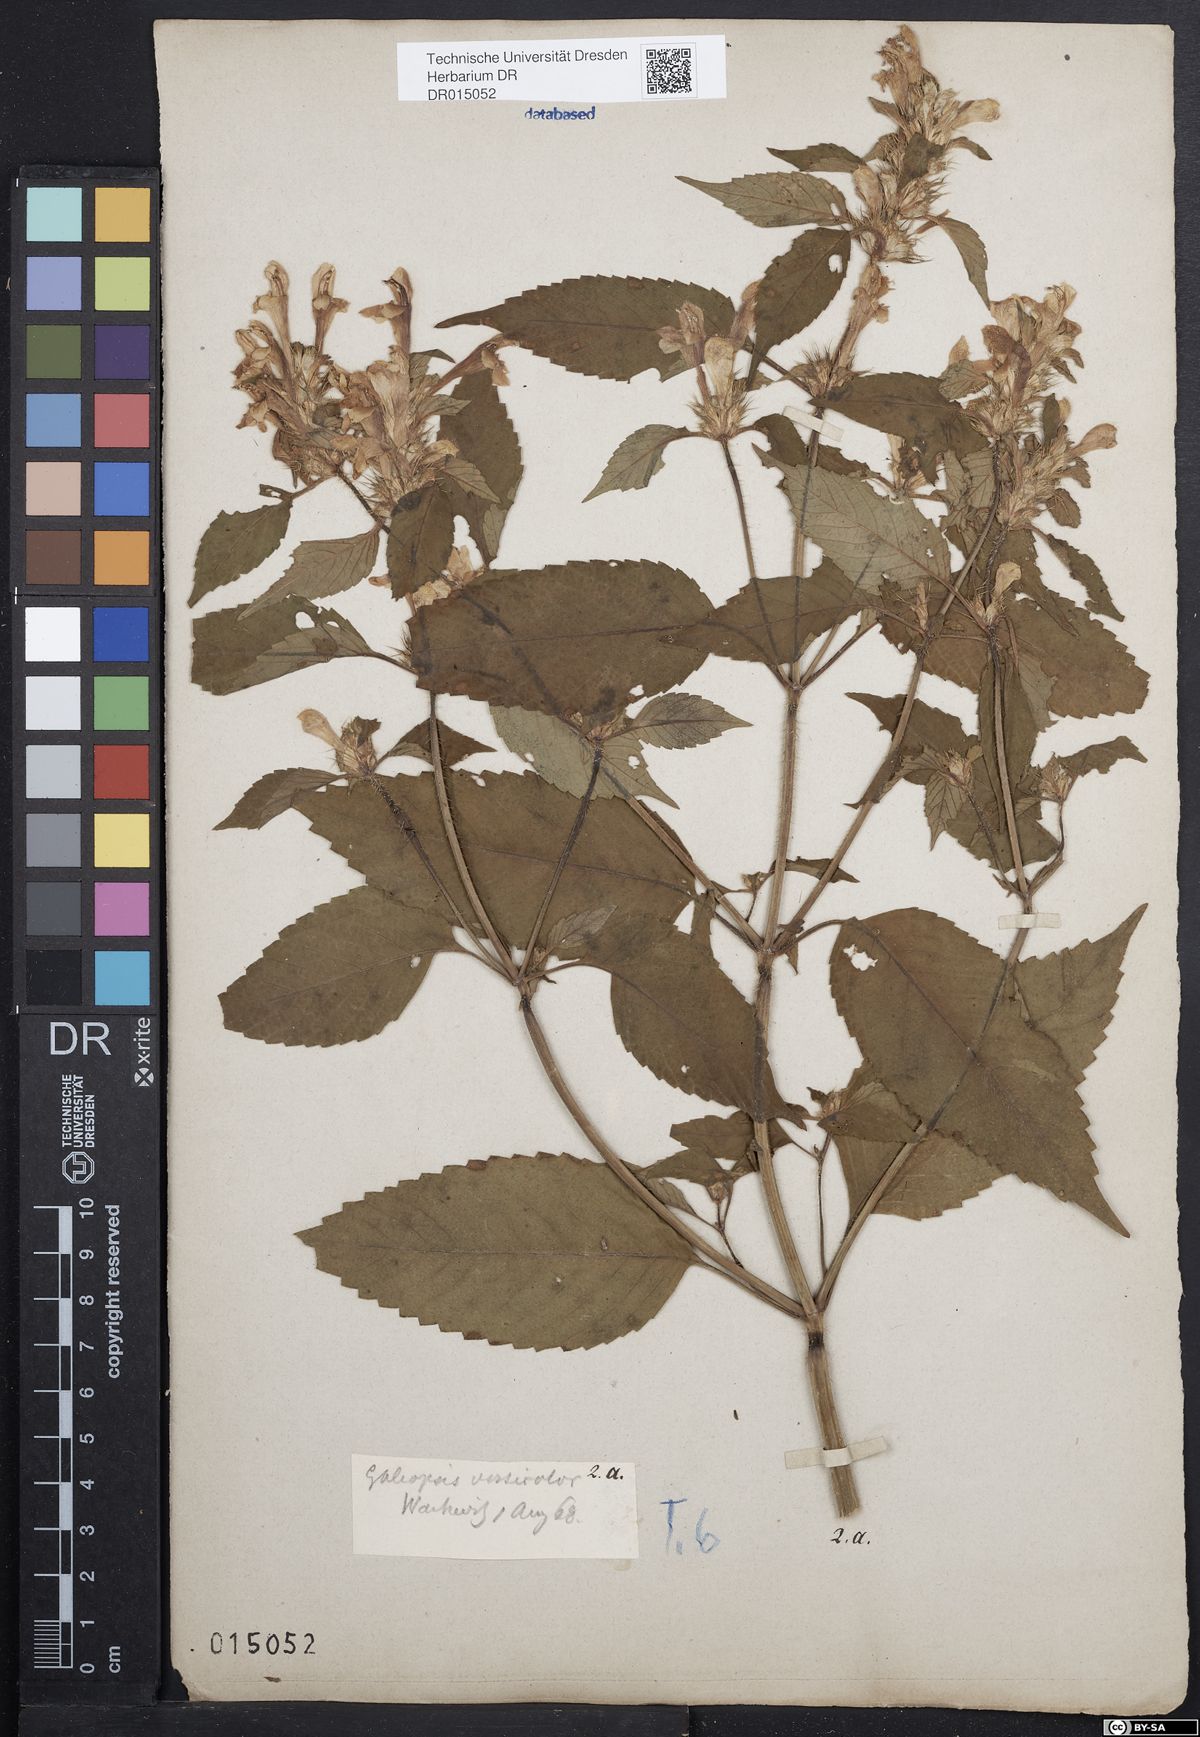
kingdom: Plantae
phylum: Tracheophyta
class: Magnoliopsida
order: Lamiales
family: Lamiaceae
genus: Galeopsis
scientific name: Galeopsis speciosa
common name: Large-flowered hemp-nettle
